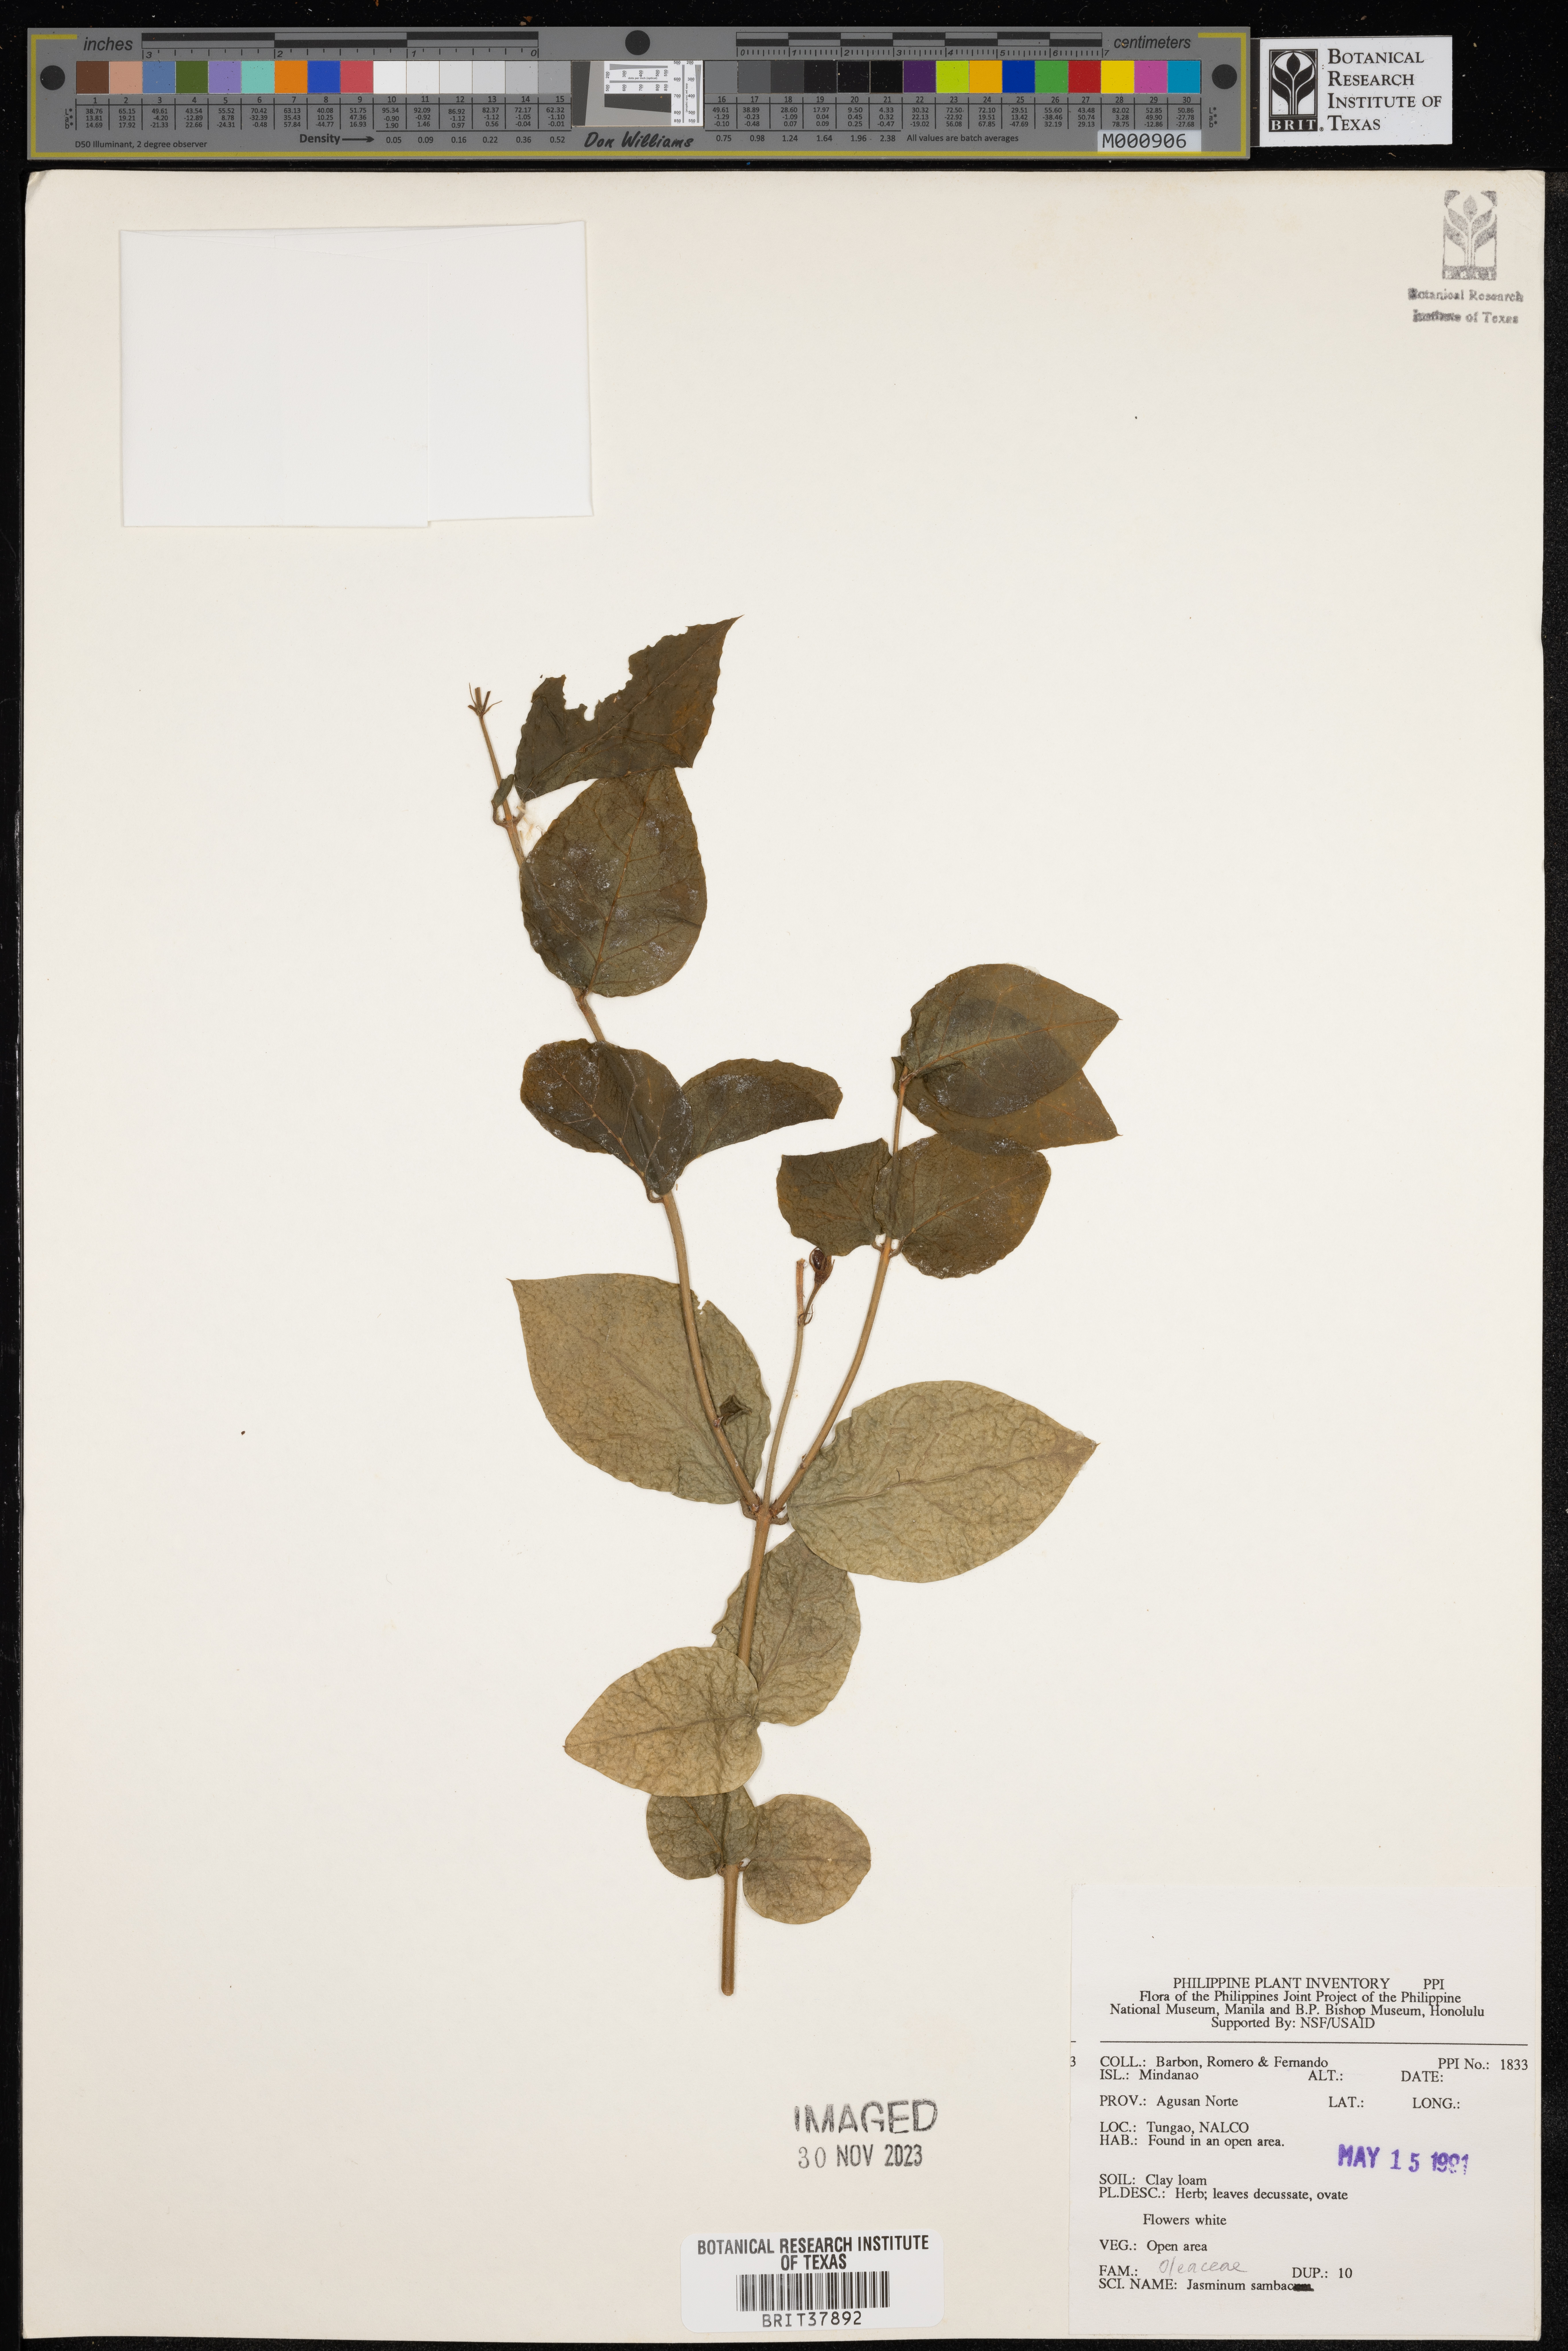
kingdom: Plantae
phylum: Tracheophyta
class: Magnoliopsida
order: Lamiales
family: Oleaceae
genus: Jasminum
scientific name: Jasminum sambac
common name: Arabian jasmine
